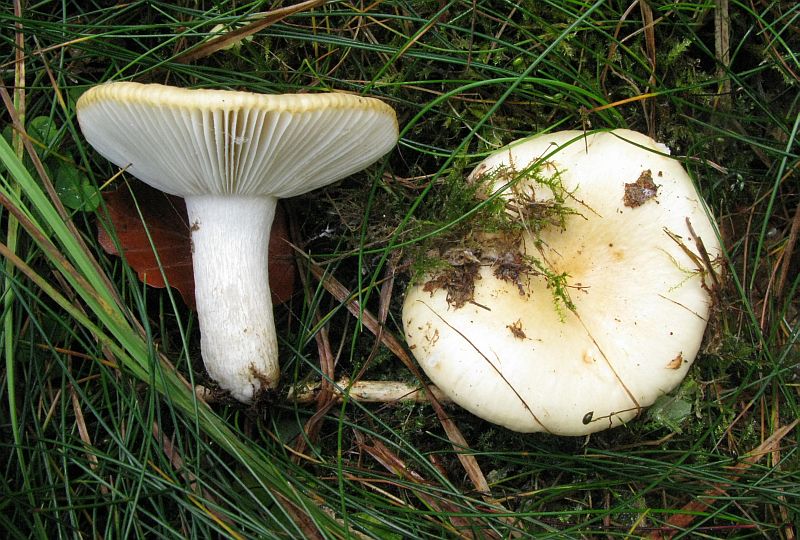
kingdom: Fungi
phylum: Basidiomycota
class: Agaricomycetes
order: Russulales
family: Russulaceae
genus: Russula
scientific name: Russula claroflava
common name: birke-skørhat
